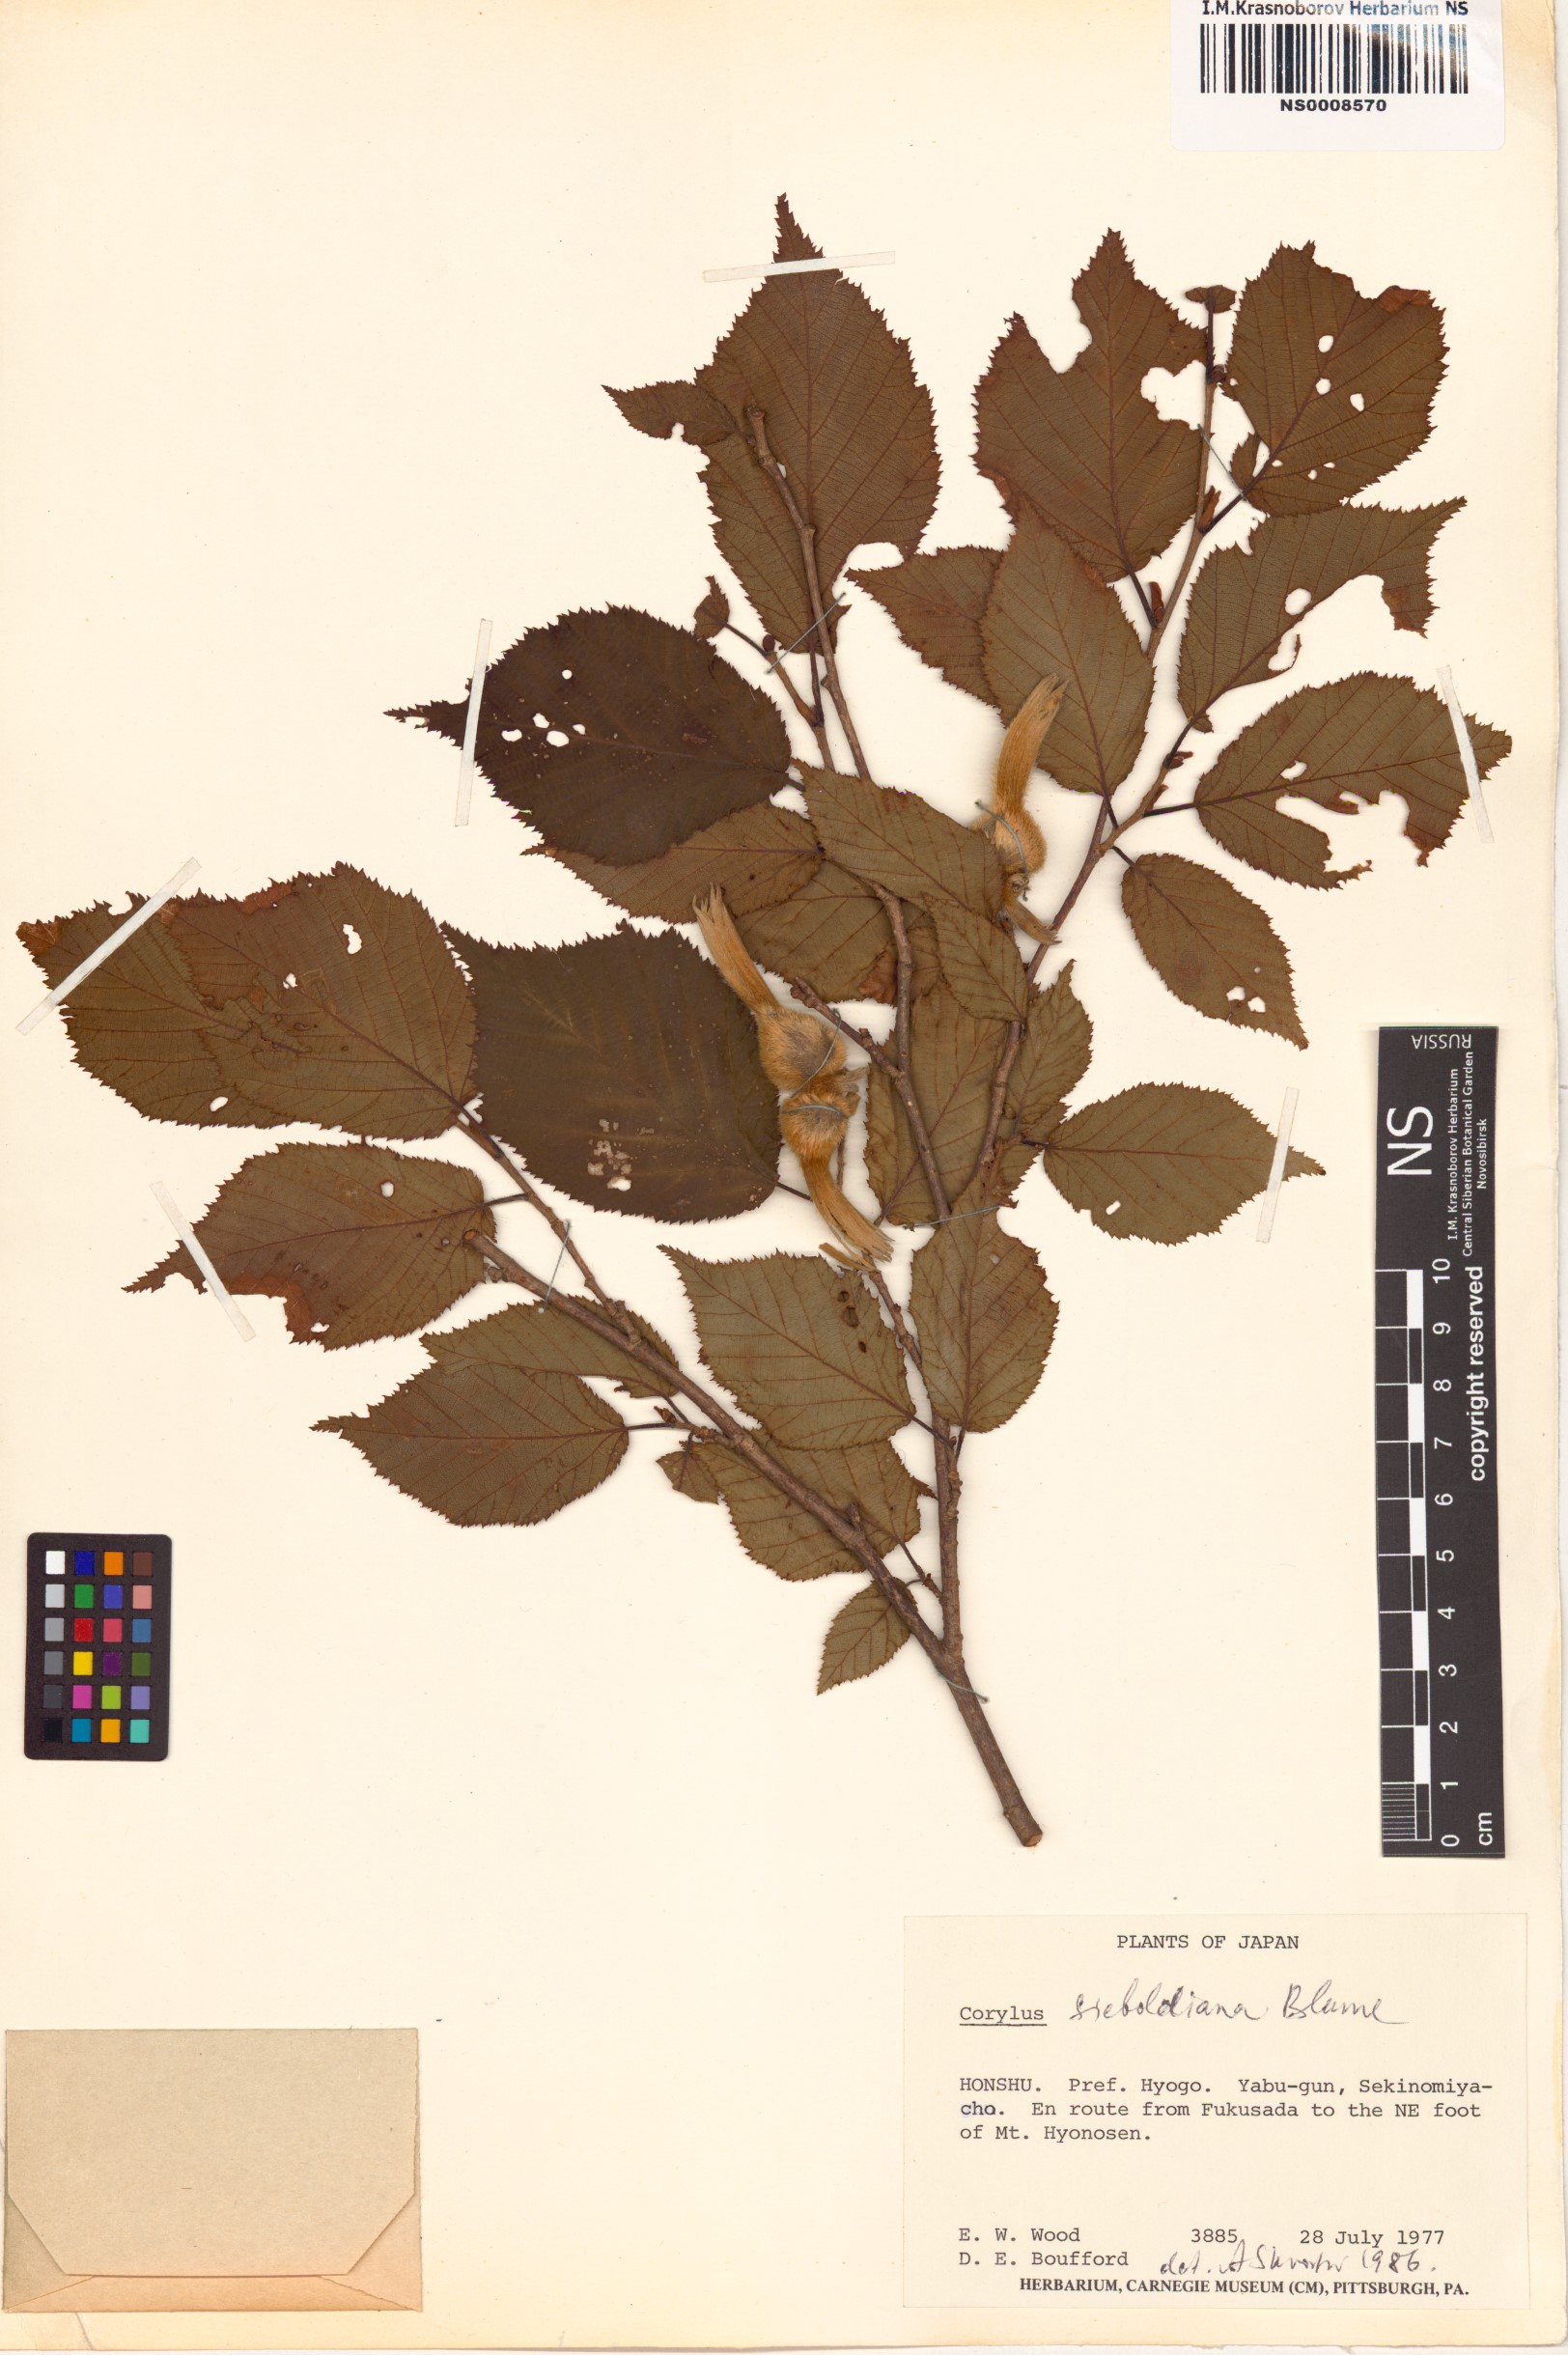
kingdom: Plantae
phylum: Tracheophyta
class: Magnoliopsida
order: Fagales
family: Betulaceae
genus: Corylus
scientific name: Corylus sieboldiana
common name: Japanese hazel
